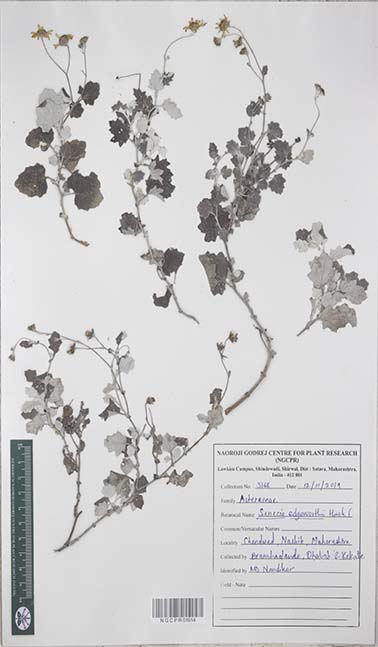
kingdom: Plantae
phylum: Tracheophyta
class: Magnoliopsida
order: Asterales
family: Asteraceae
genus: Senecio
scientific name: Senecio edgeworthii
